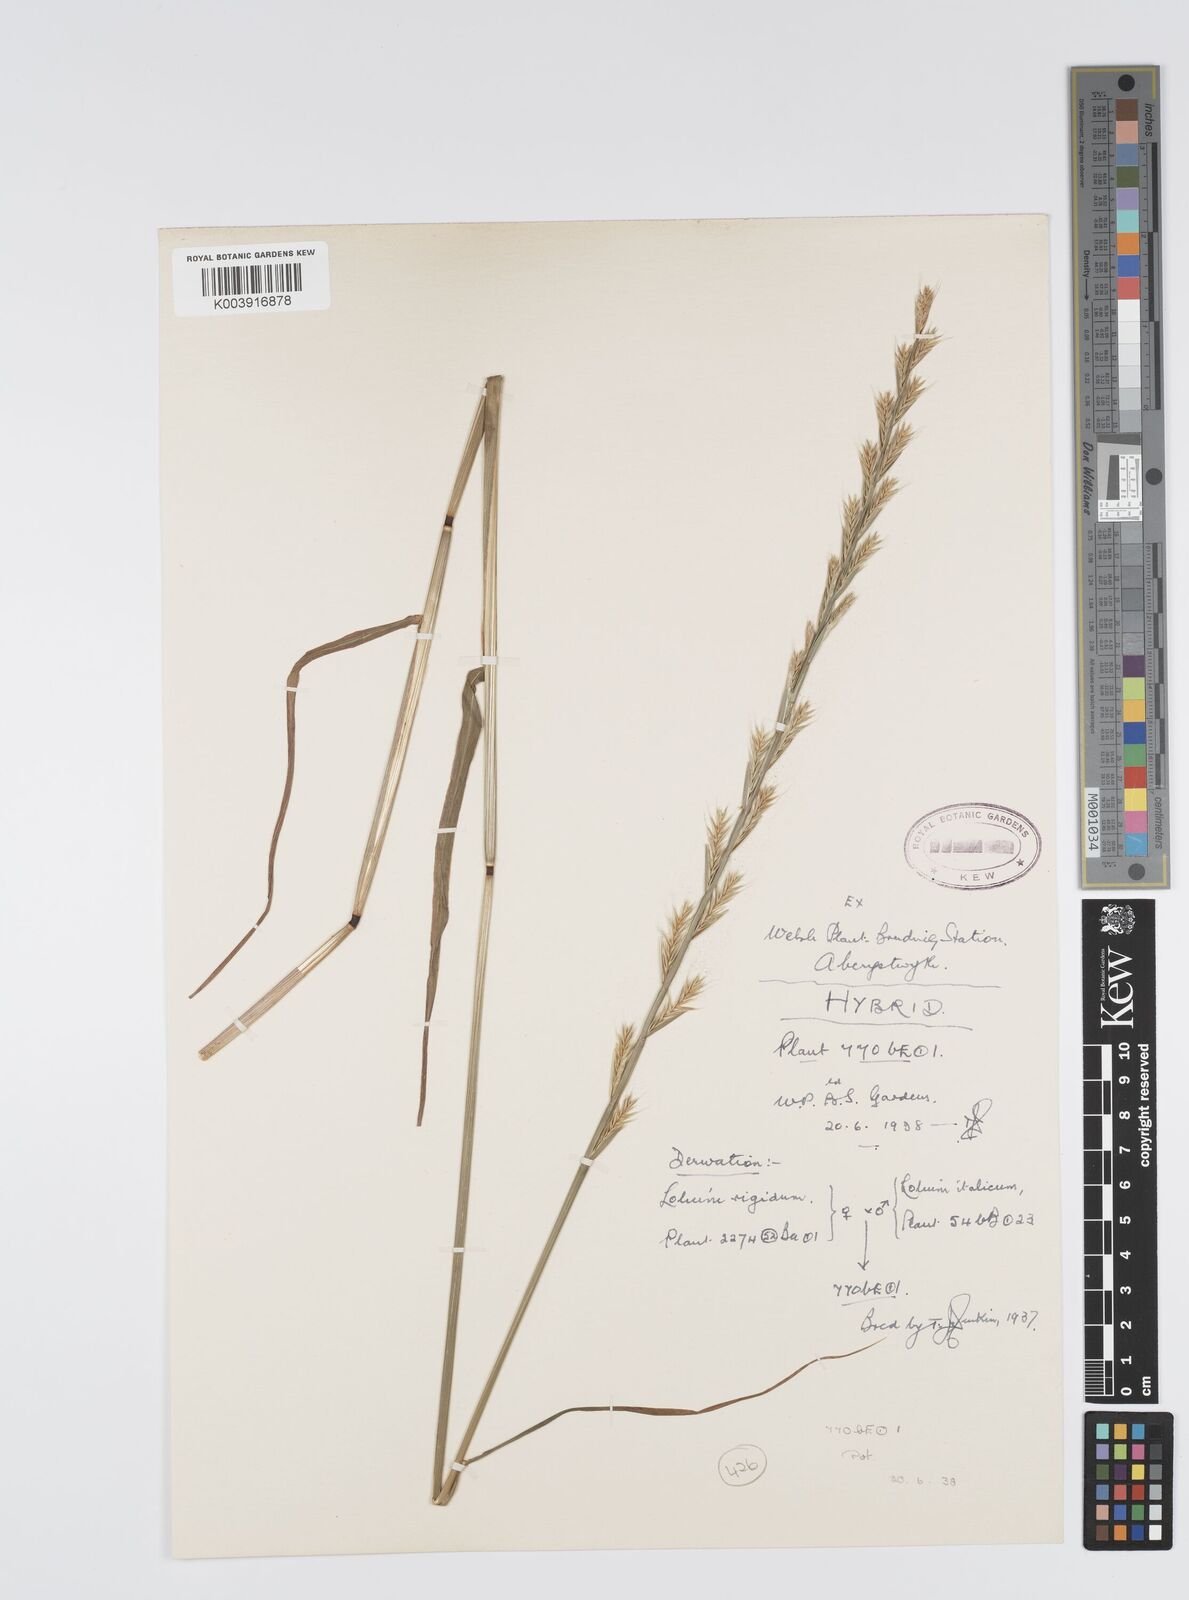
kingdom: Plantae
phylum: Tracheophyta
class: Liliopsida
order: Poales
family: Poaceae
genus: Lolium
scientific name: Lolium multiflorum
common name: Annual ryegrass
